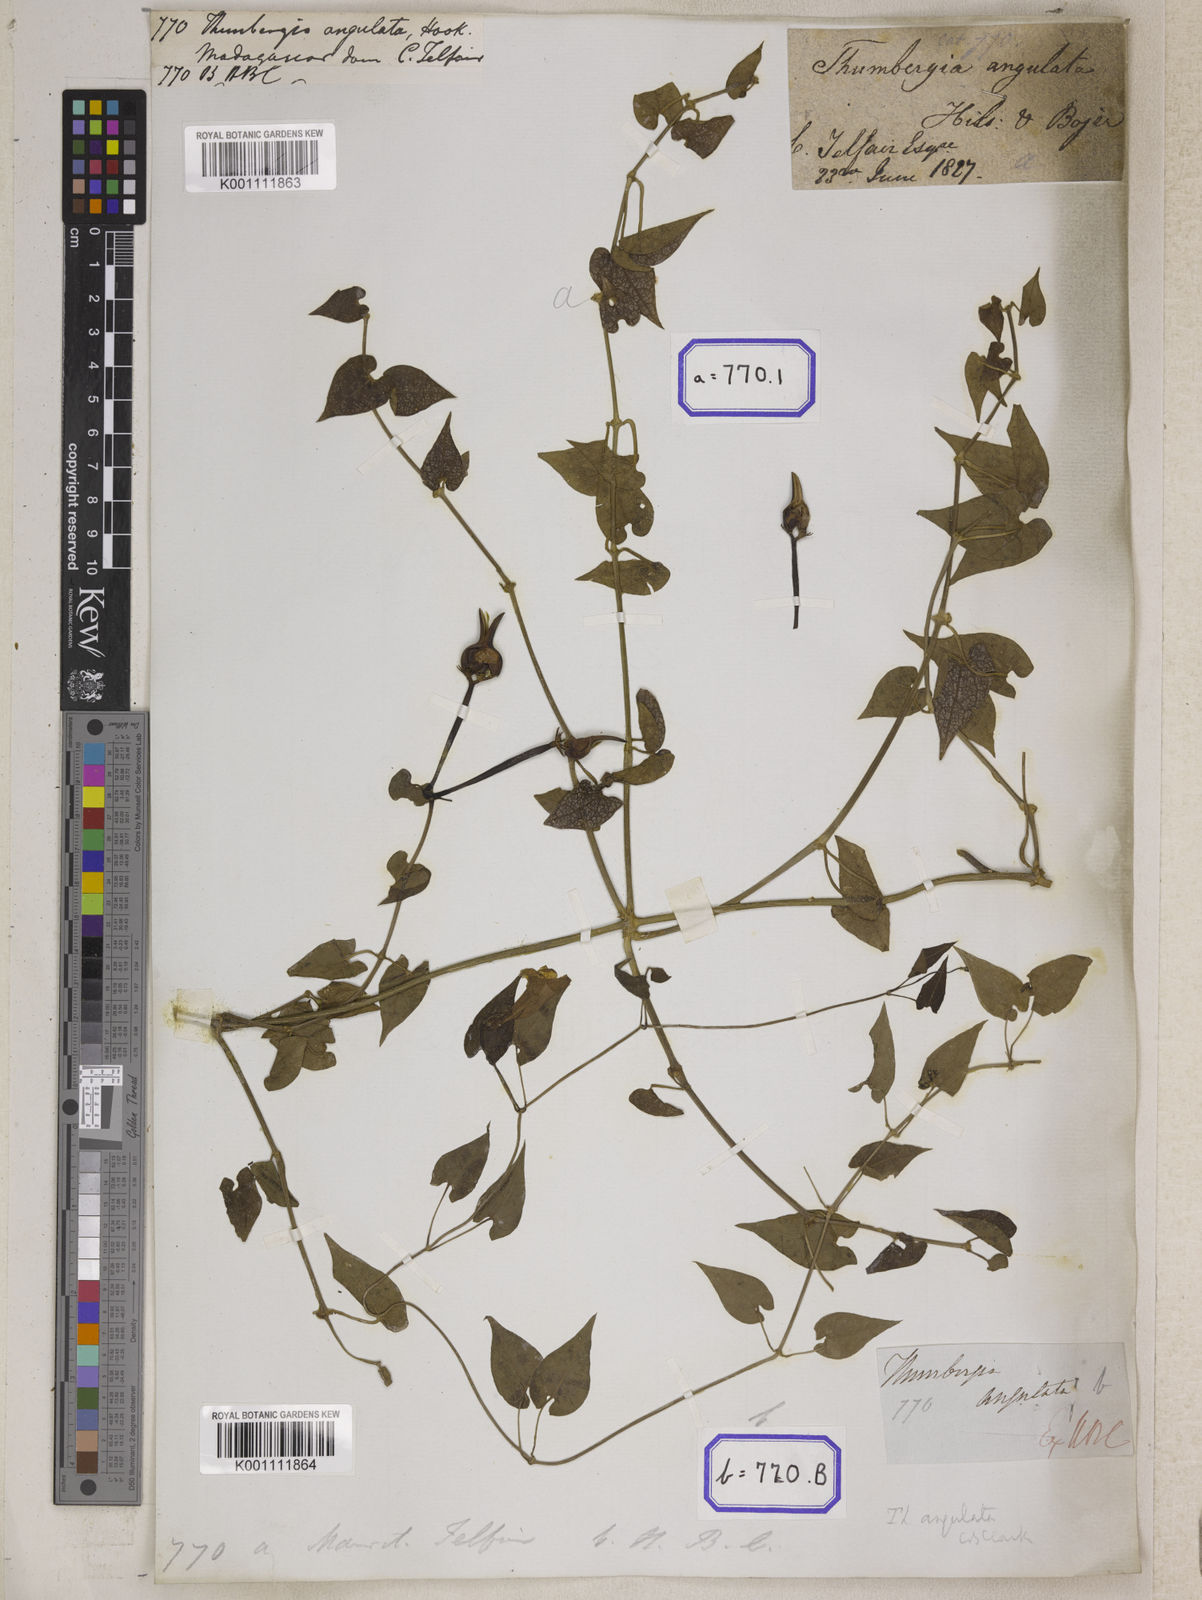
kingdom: Plantae
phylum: Tracheophyta
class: Magnoliopsida
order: Lamiales
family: Acanthaceae
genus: Thunbergia
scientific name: Thunbergia angulata
